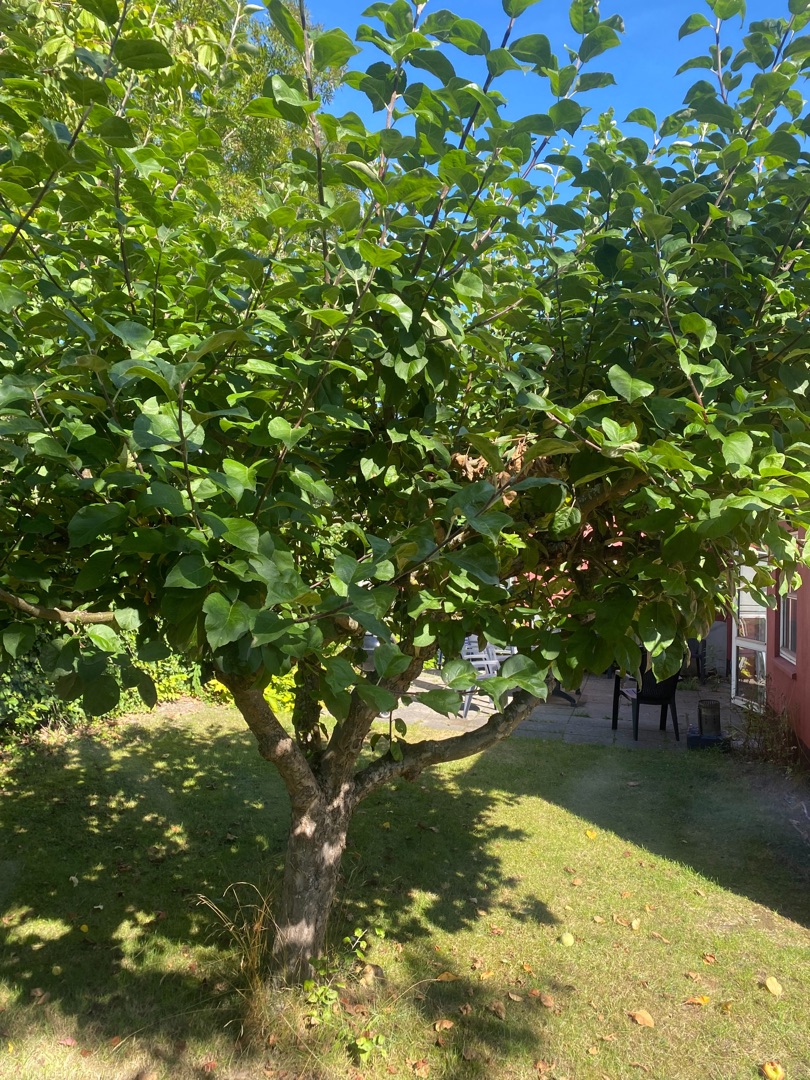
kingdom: Plantae
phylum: Tracheophyta
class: Magnoliopsida
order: Rosales
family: Rosaceae
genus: Malus
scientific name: Malus domestica
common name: Sød-æble
